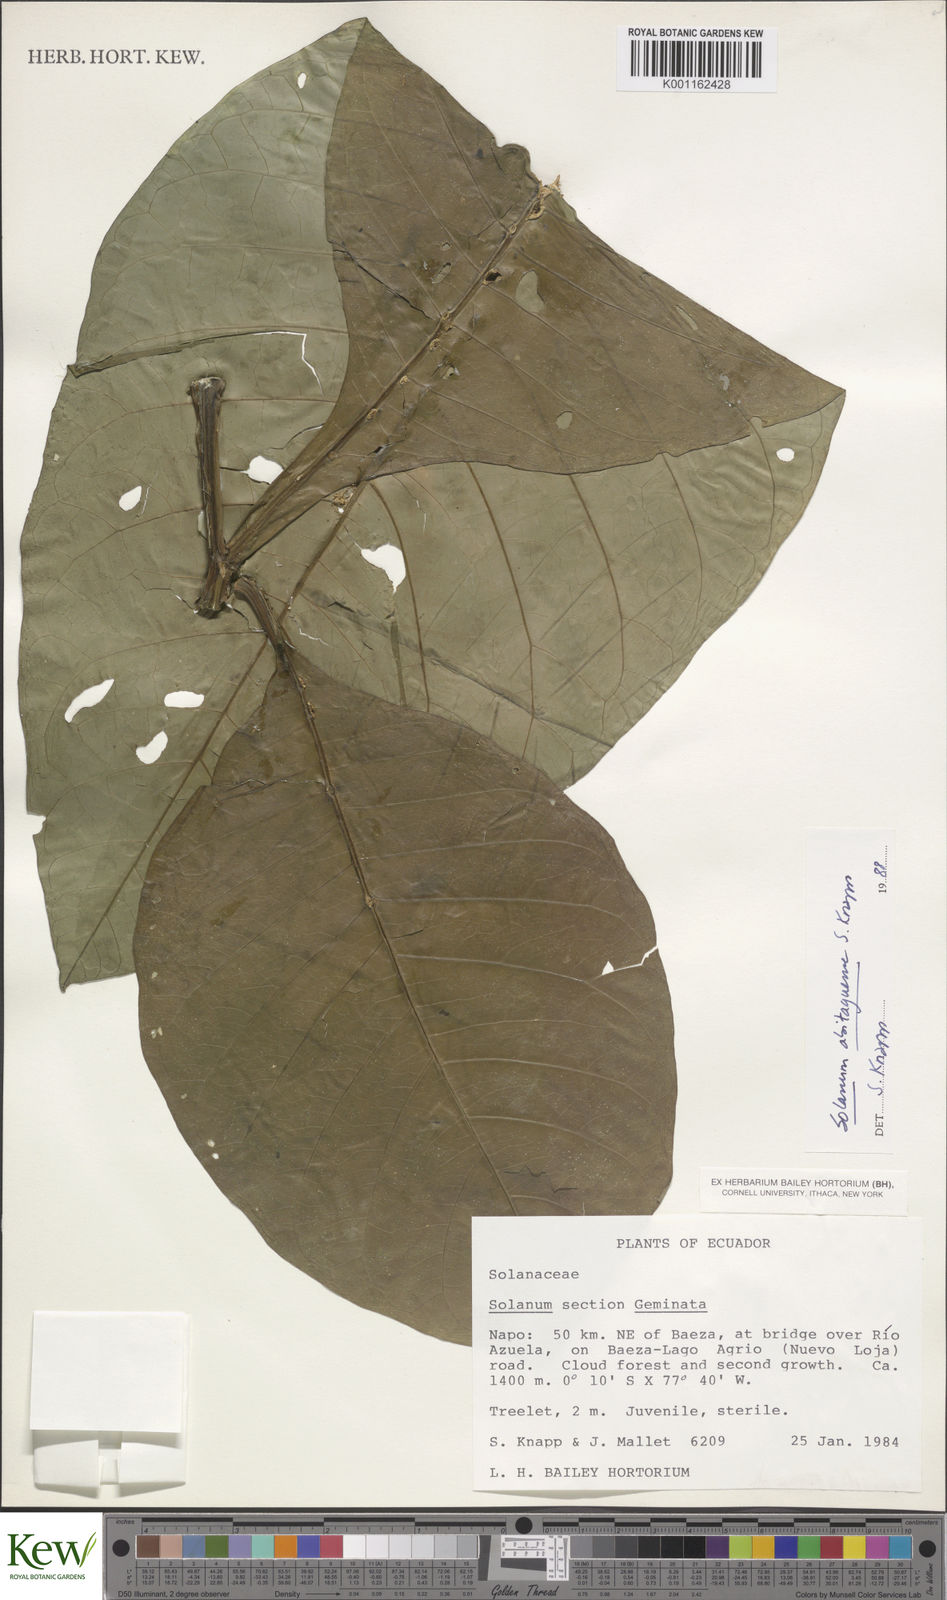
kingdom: Plantae
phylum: Tracheophyta
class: Magnoliopsida
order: Solanales
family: Solanaceae
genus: Solanum
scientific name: Solanum abitaguense
